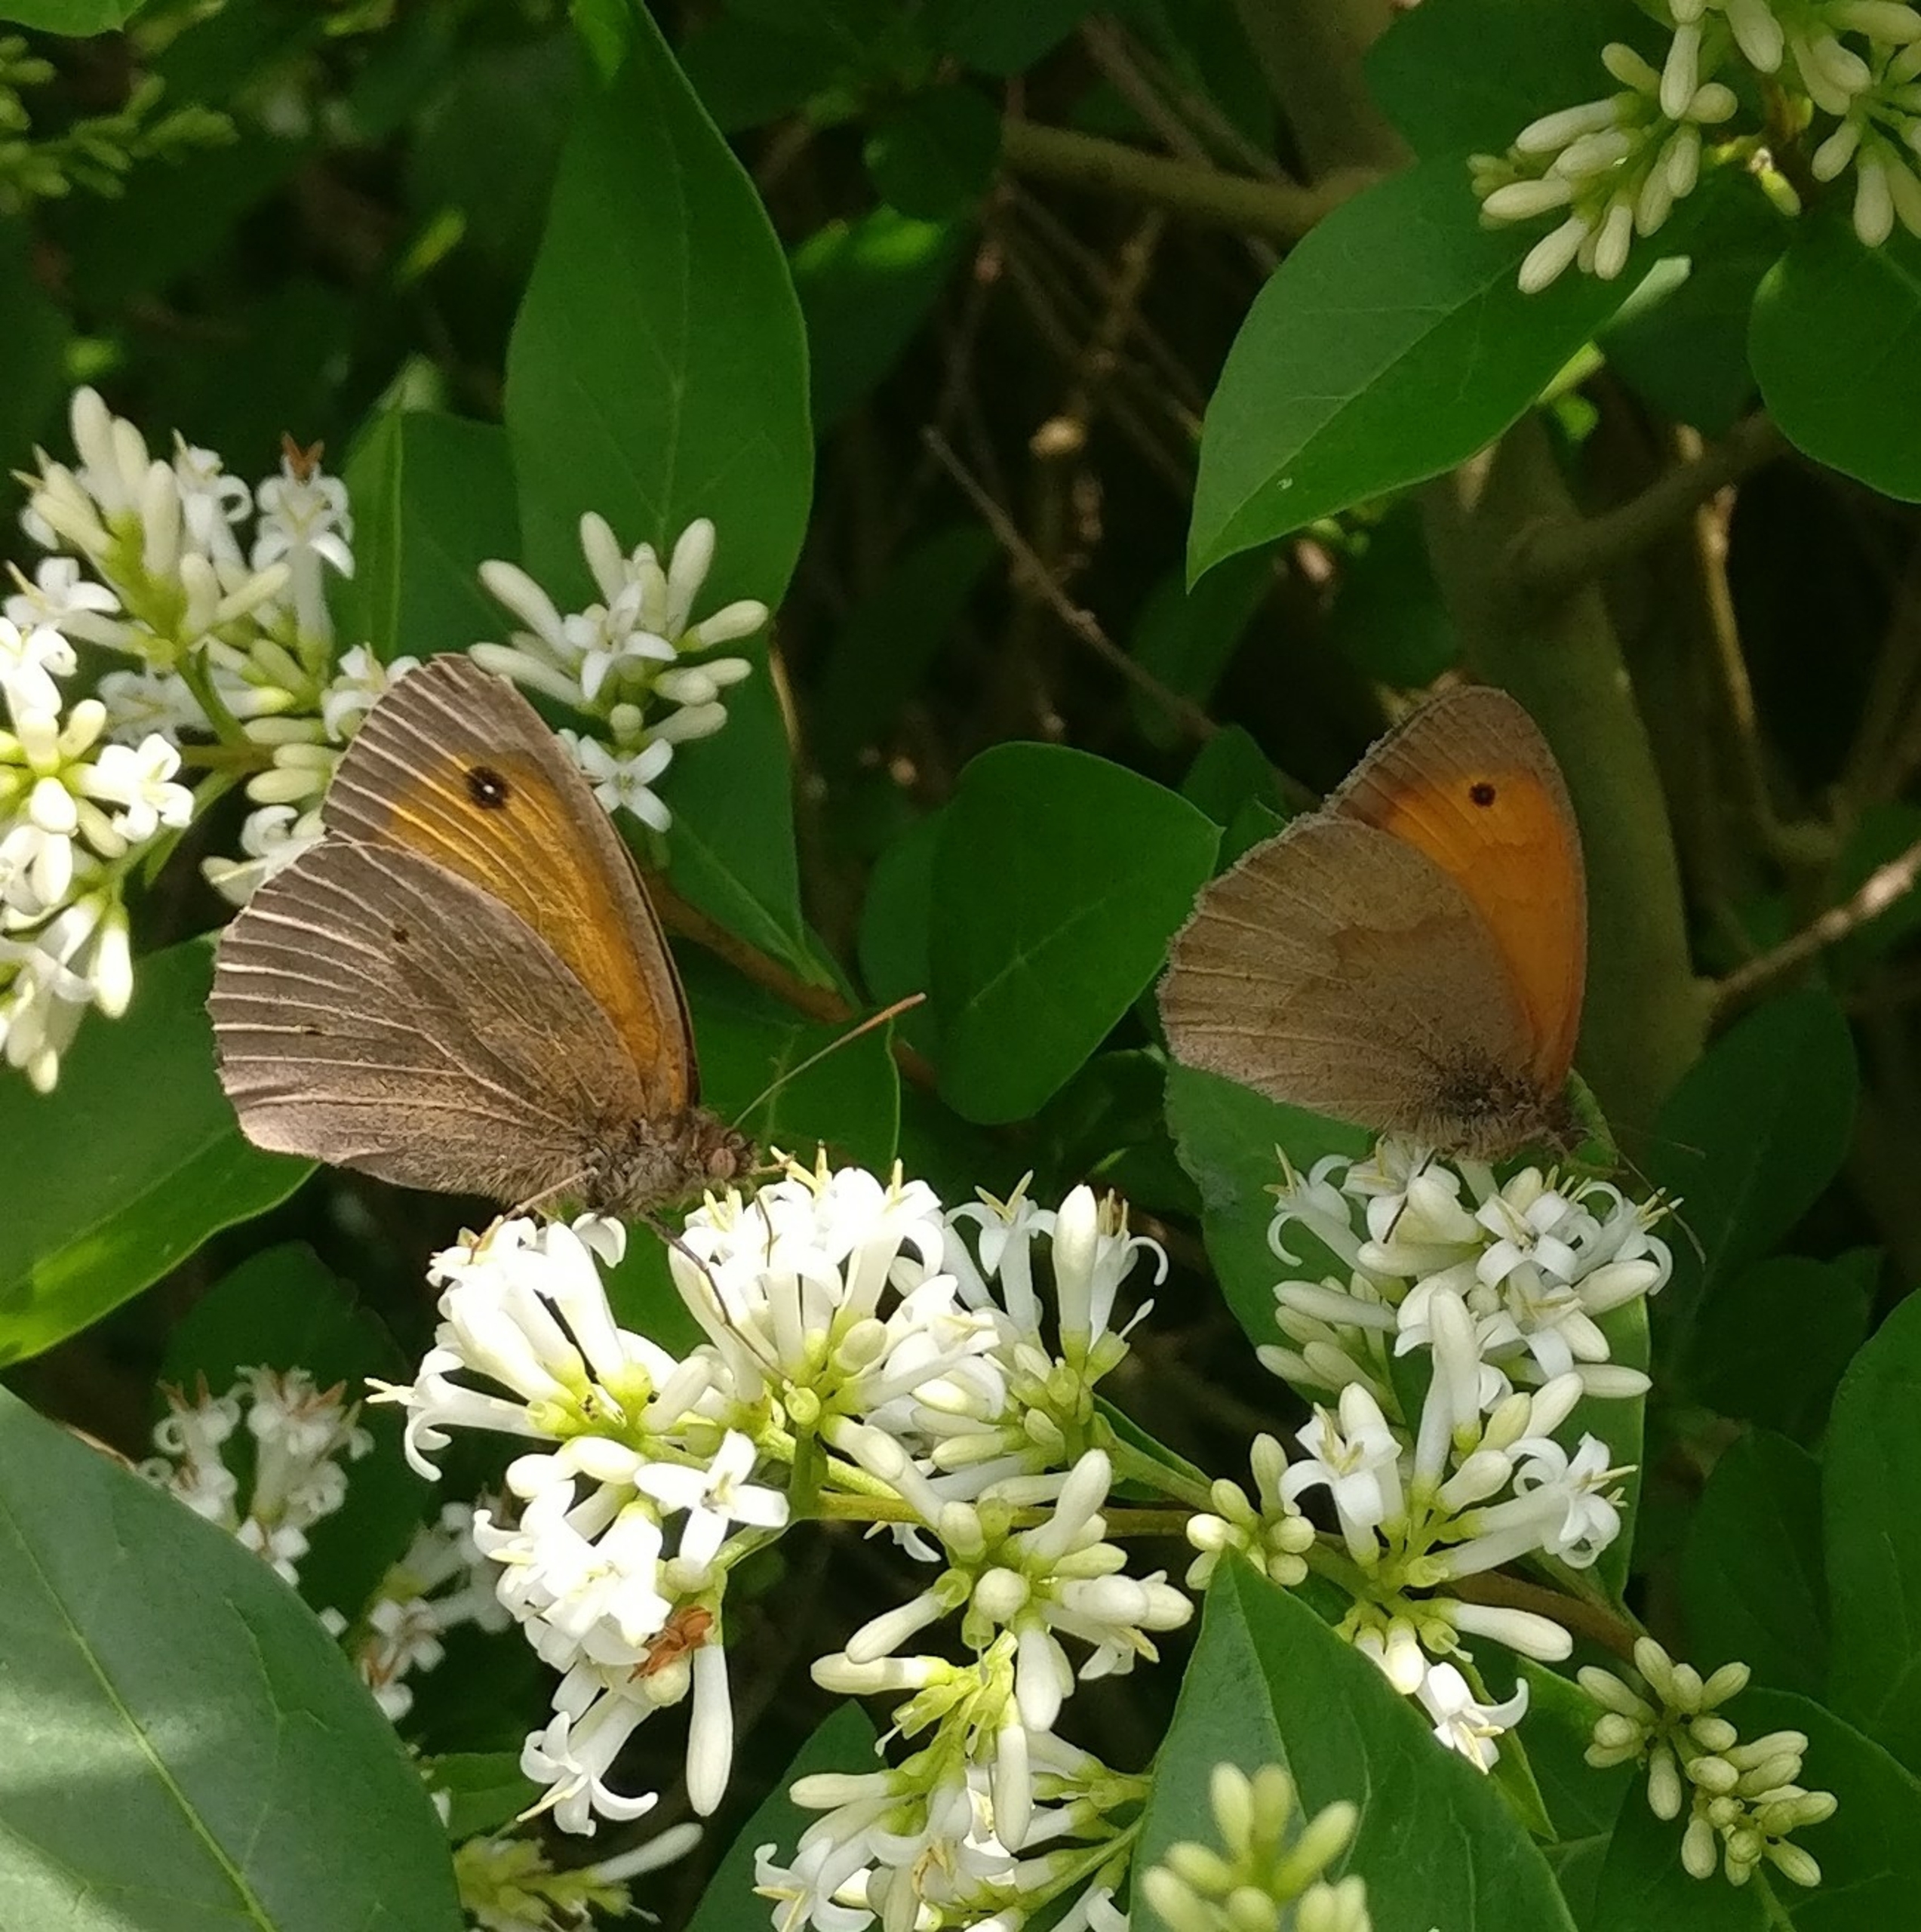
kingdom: Animalia
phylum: Arthropoda
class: Insecta
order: Lepidoptera
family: Nymphalidae
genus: Maniola
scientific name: Maniola jurtina
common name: Græsrandøje
